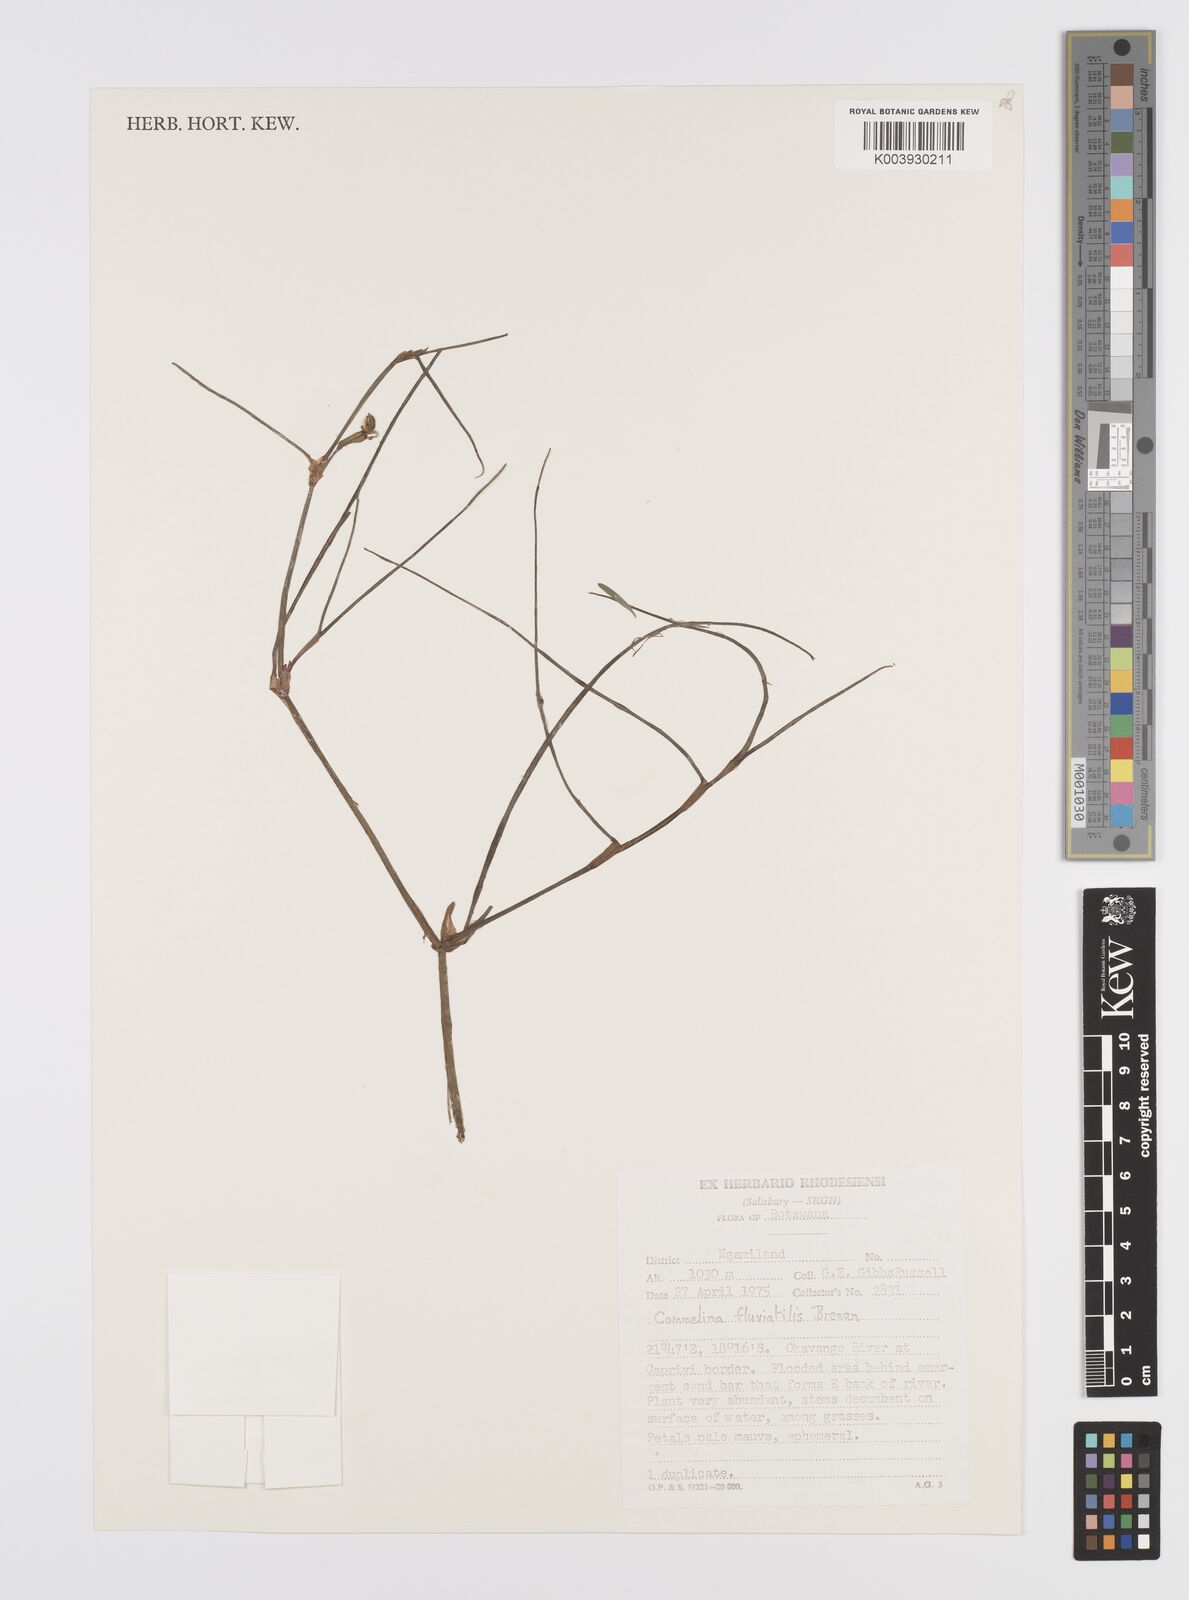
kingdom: Plantae
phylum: Tracheophyta
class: Liliopsida
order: Commelinales
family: Commelinaceae
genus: Commelina
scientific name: Commelina fluviatilis
